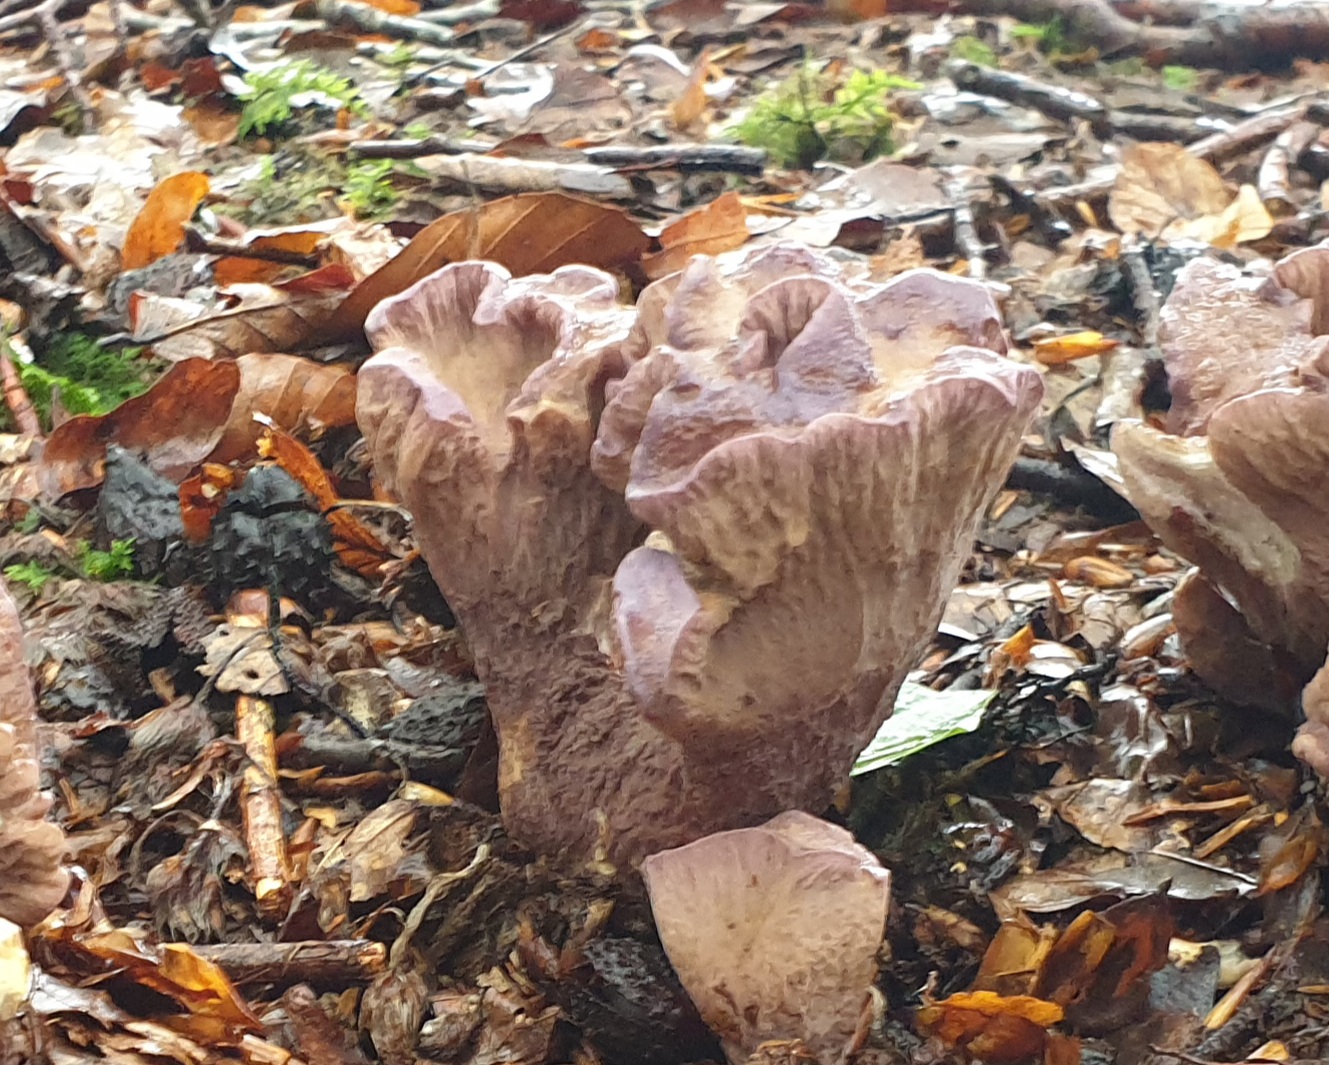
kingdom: Fungi
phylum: Basidiomycota
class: Agaricomycetes
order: Gomphales
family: Gomphaceae
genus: Gomphus
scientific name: Gomphus clavatus
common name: køllekantarel
